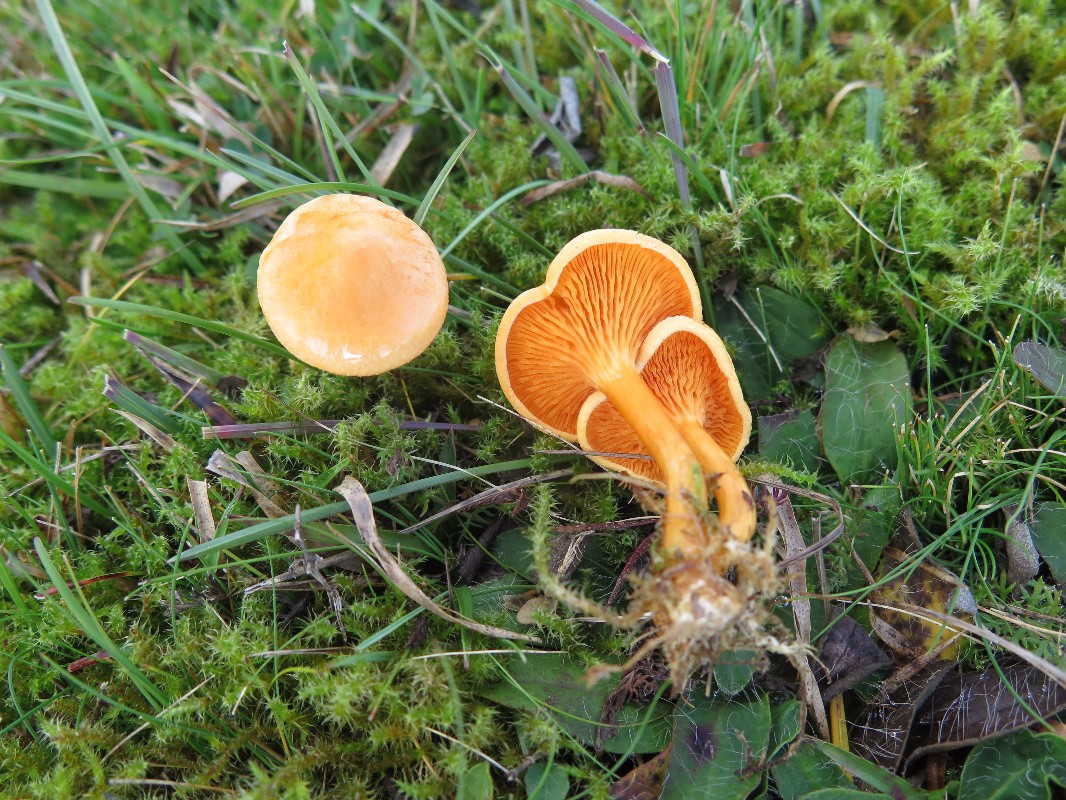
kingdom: Fungi
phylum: Basidiomycota
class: Agaricomycetes
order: Boletales
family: Hygrophoropsidaceae
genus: Hygrophoropsis
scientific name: Hygrophoropsis aurantiaca
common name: almindelig orangekantarel
